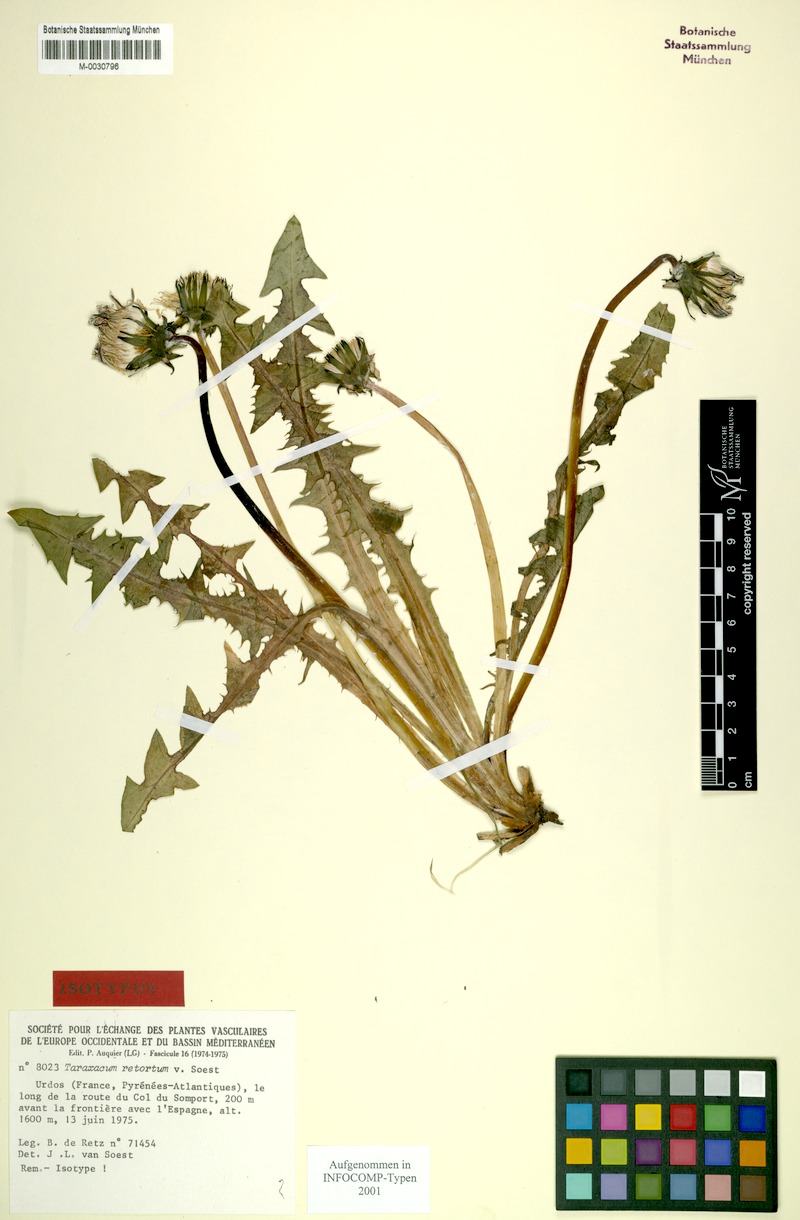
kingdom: Plantae
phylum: Tracheophyta
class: Magnoliopsida
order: Asterales
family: Asteraceae
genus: Taraxacum
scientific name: Taraxacum retortum
